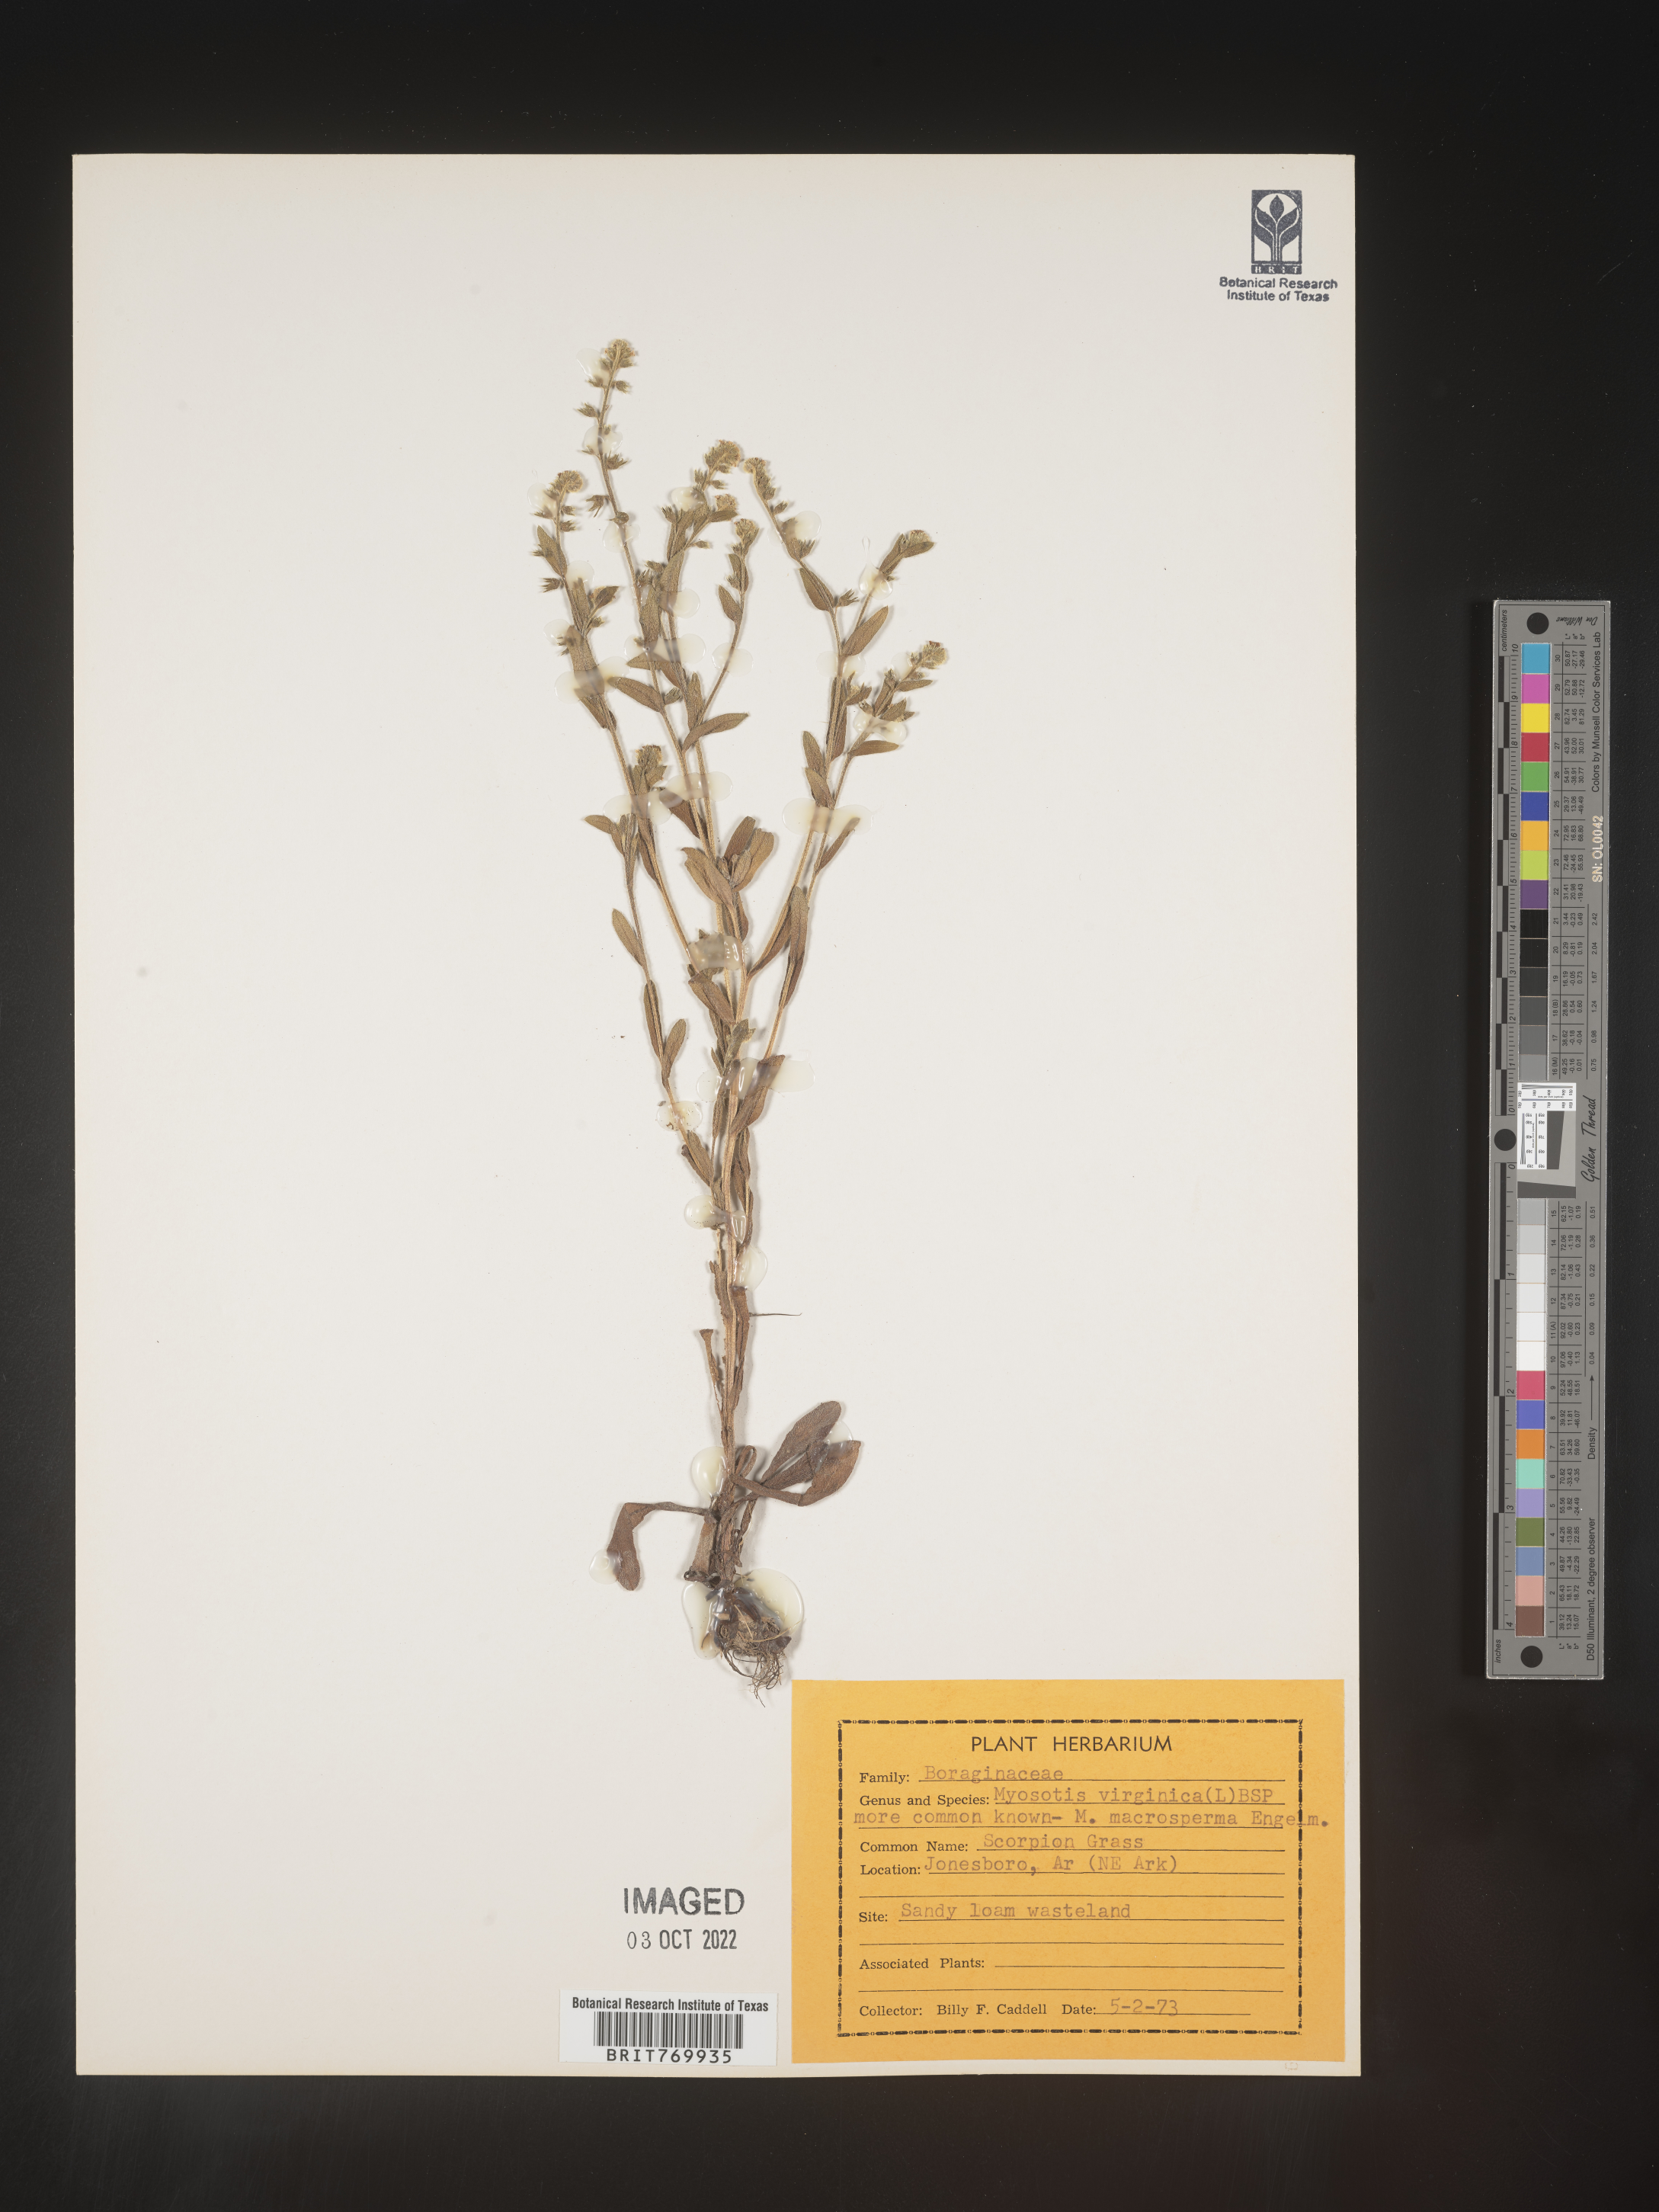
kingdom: Plantae
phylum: Tracheophyta
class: Magnoliopsida
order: Boraginales
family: Boraginaceae
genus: Myosotis
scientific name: Myosotis verna
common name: Early forget-me-not
